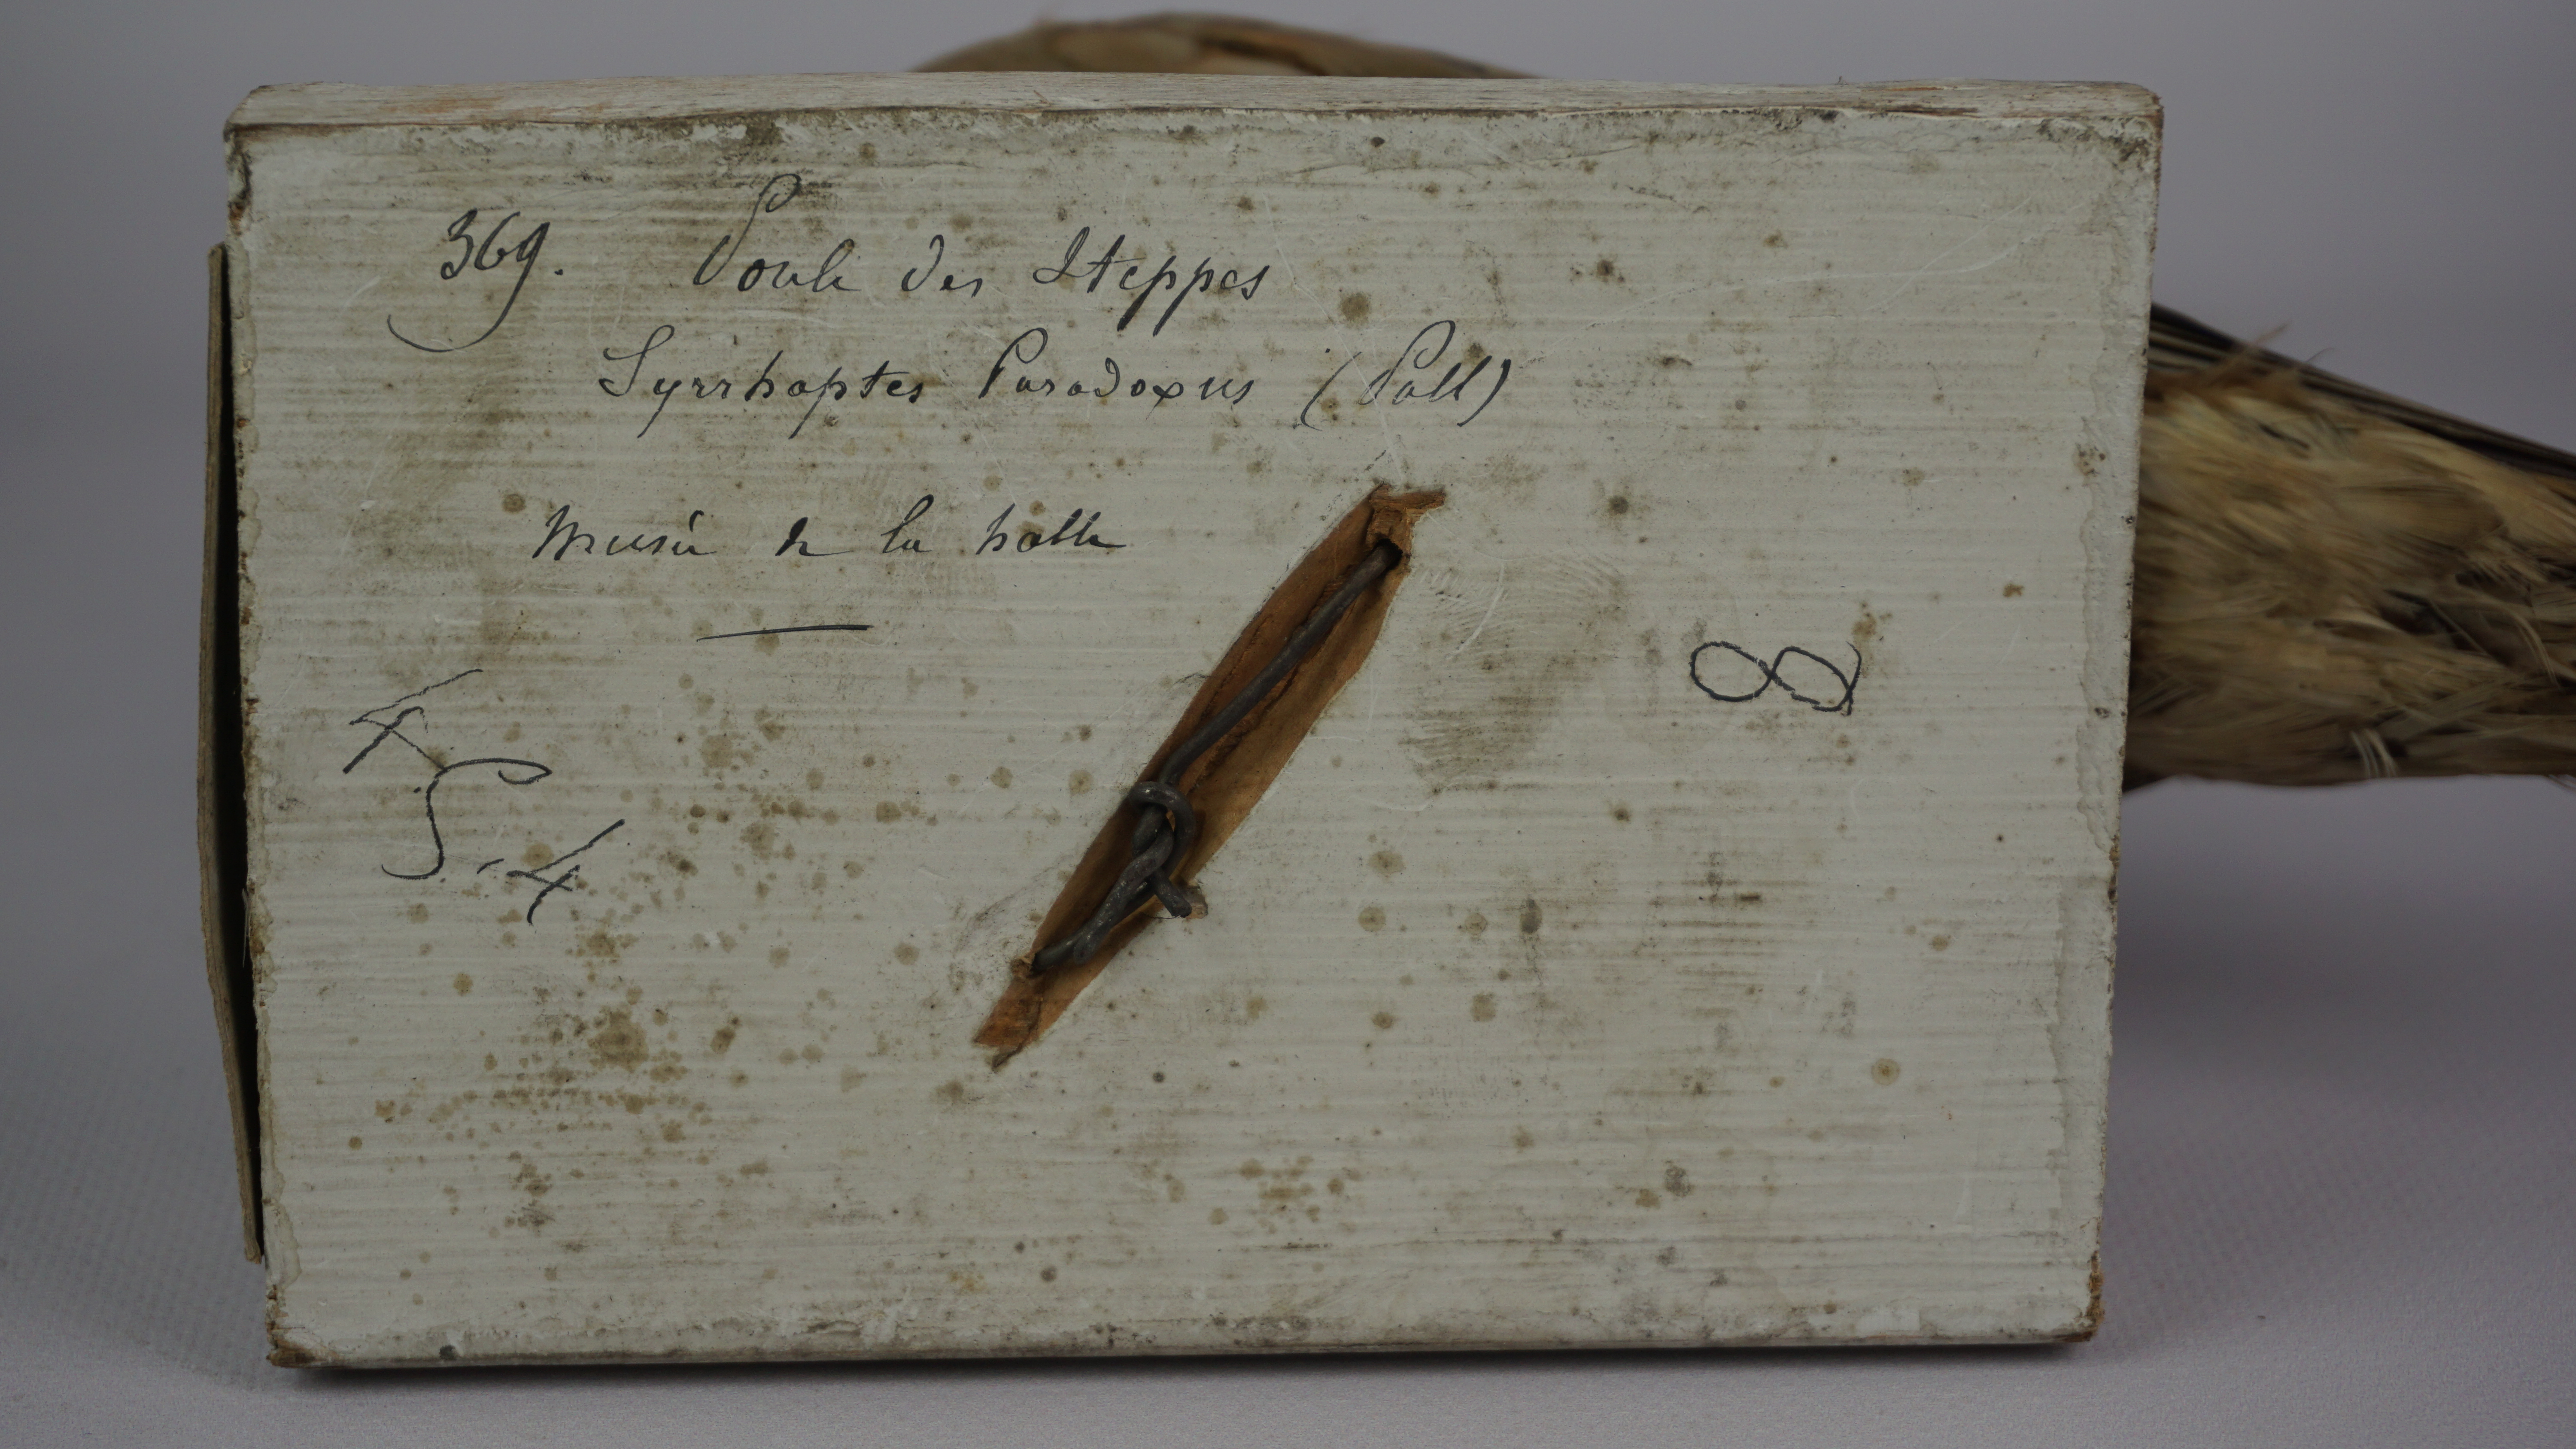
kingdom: Animalia
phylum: Chordata
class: Aves
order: Pteroclidiformes
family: Pteroclididae
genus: Syrrhaptes
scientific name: Syrrhaptes paradoxus
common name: Pallas's sandgrouse
